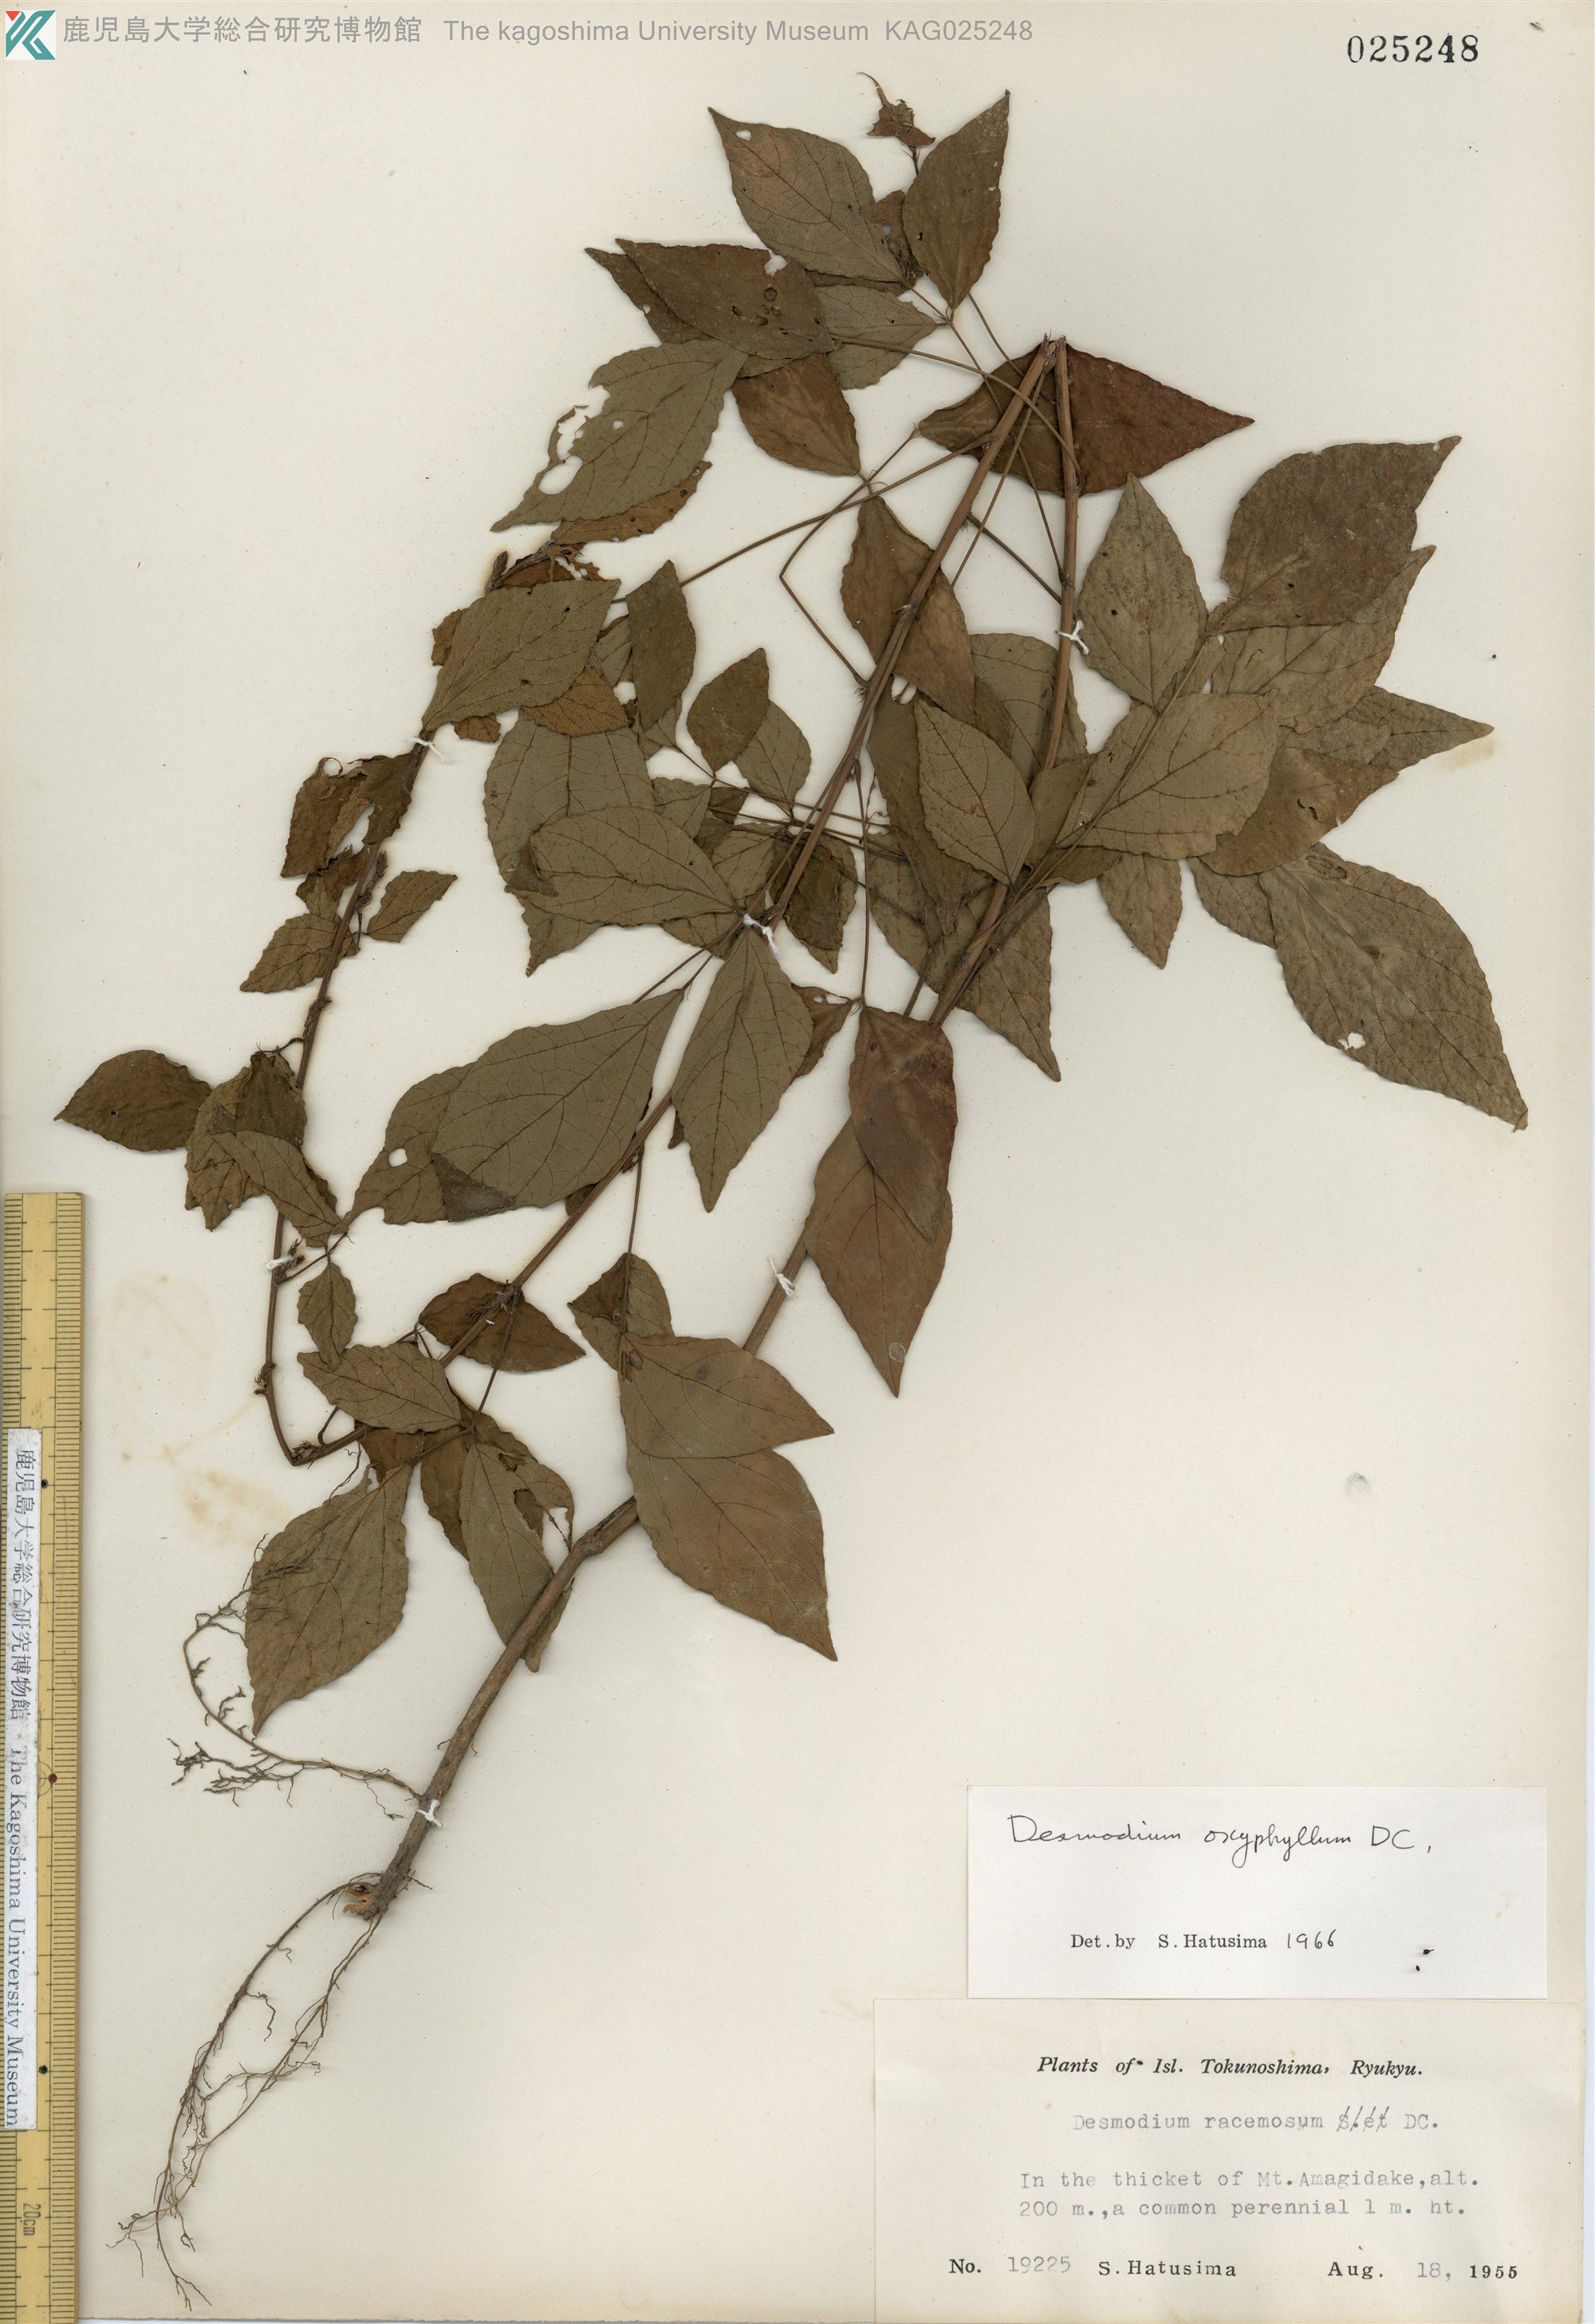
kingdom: Plantae
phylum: Tracheophyta
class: Magnoliopsida
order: Fabales
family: Fabaceae
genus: Hylodesmum
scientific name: Hylodesmum podocarpum
